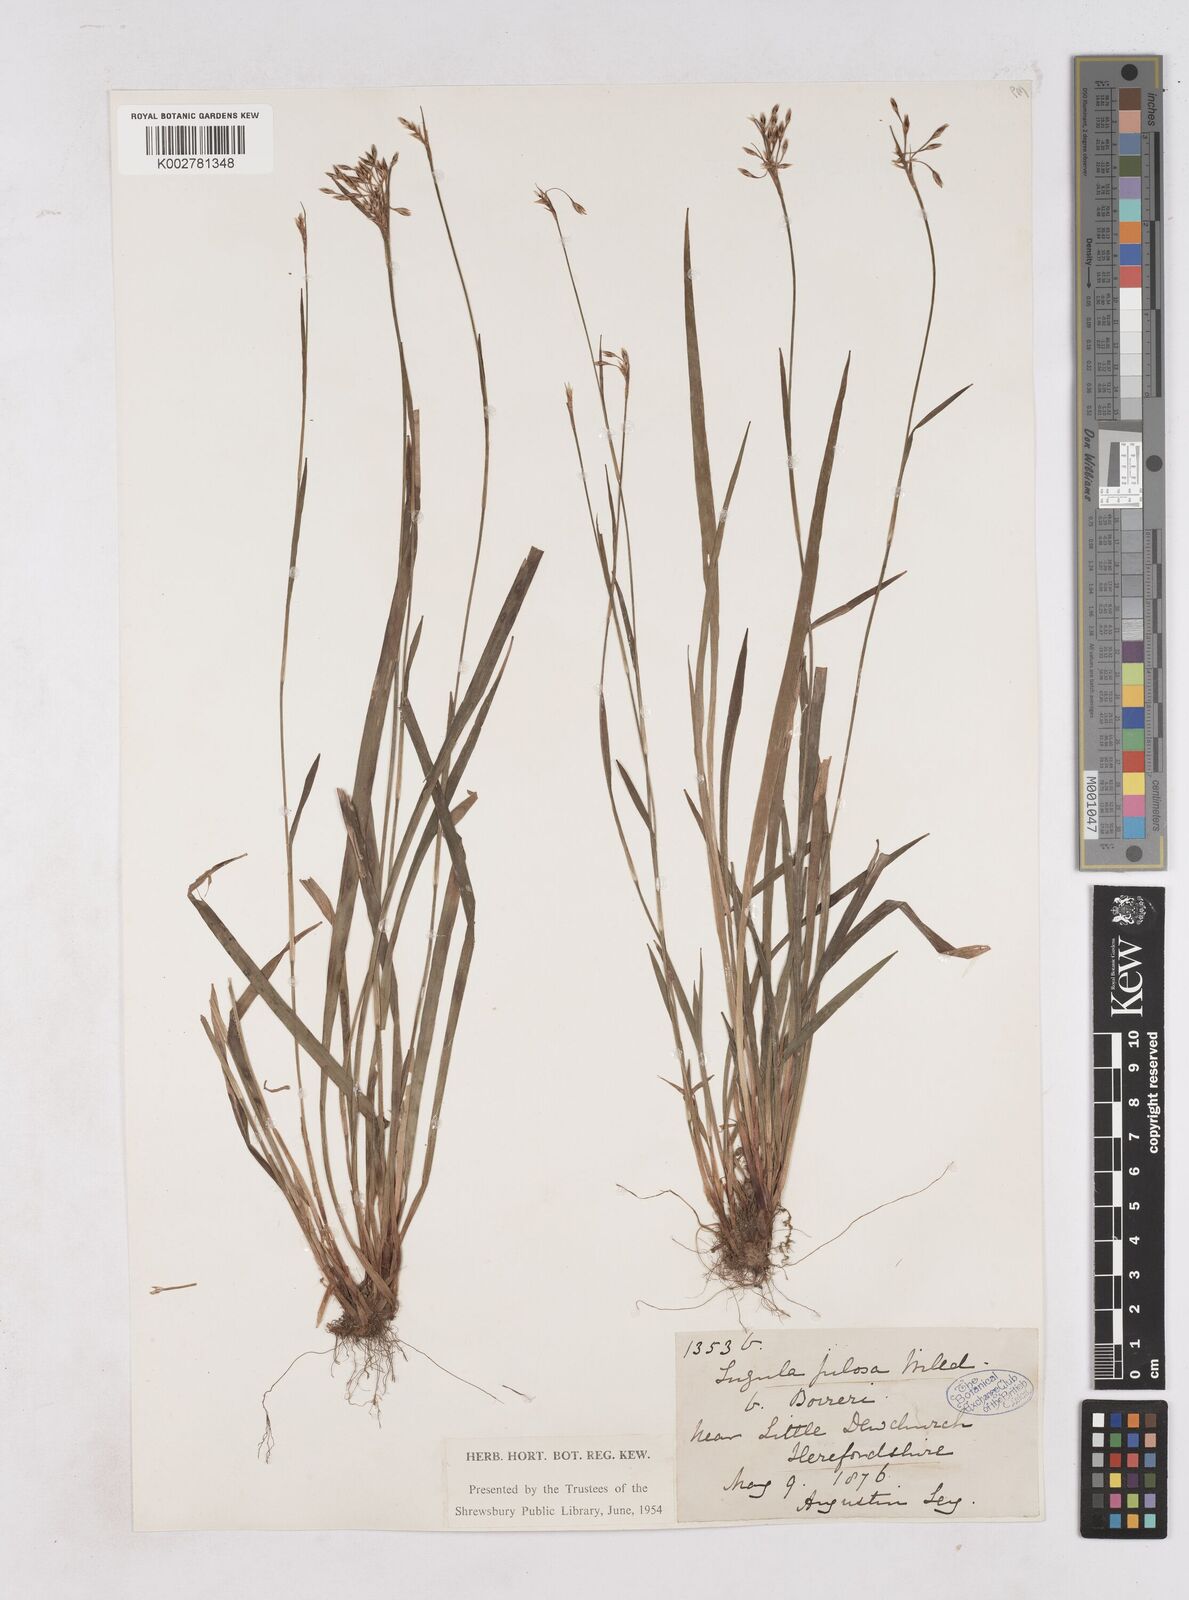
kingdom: Plantae
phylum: Tracheophyta
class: Liliopsida
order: Poales
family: Juncaceae
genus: Luzula
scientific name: Luzula pilosa
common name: Hairy wood-rush
